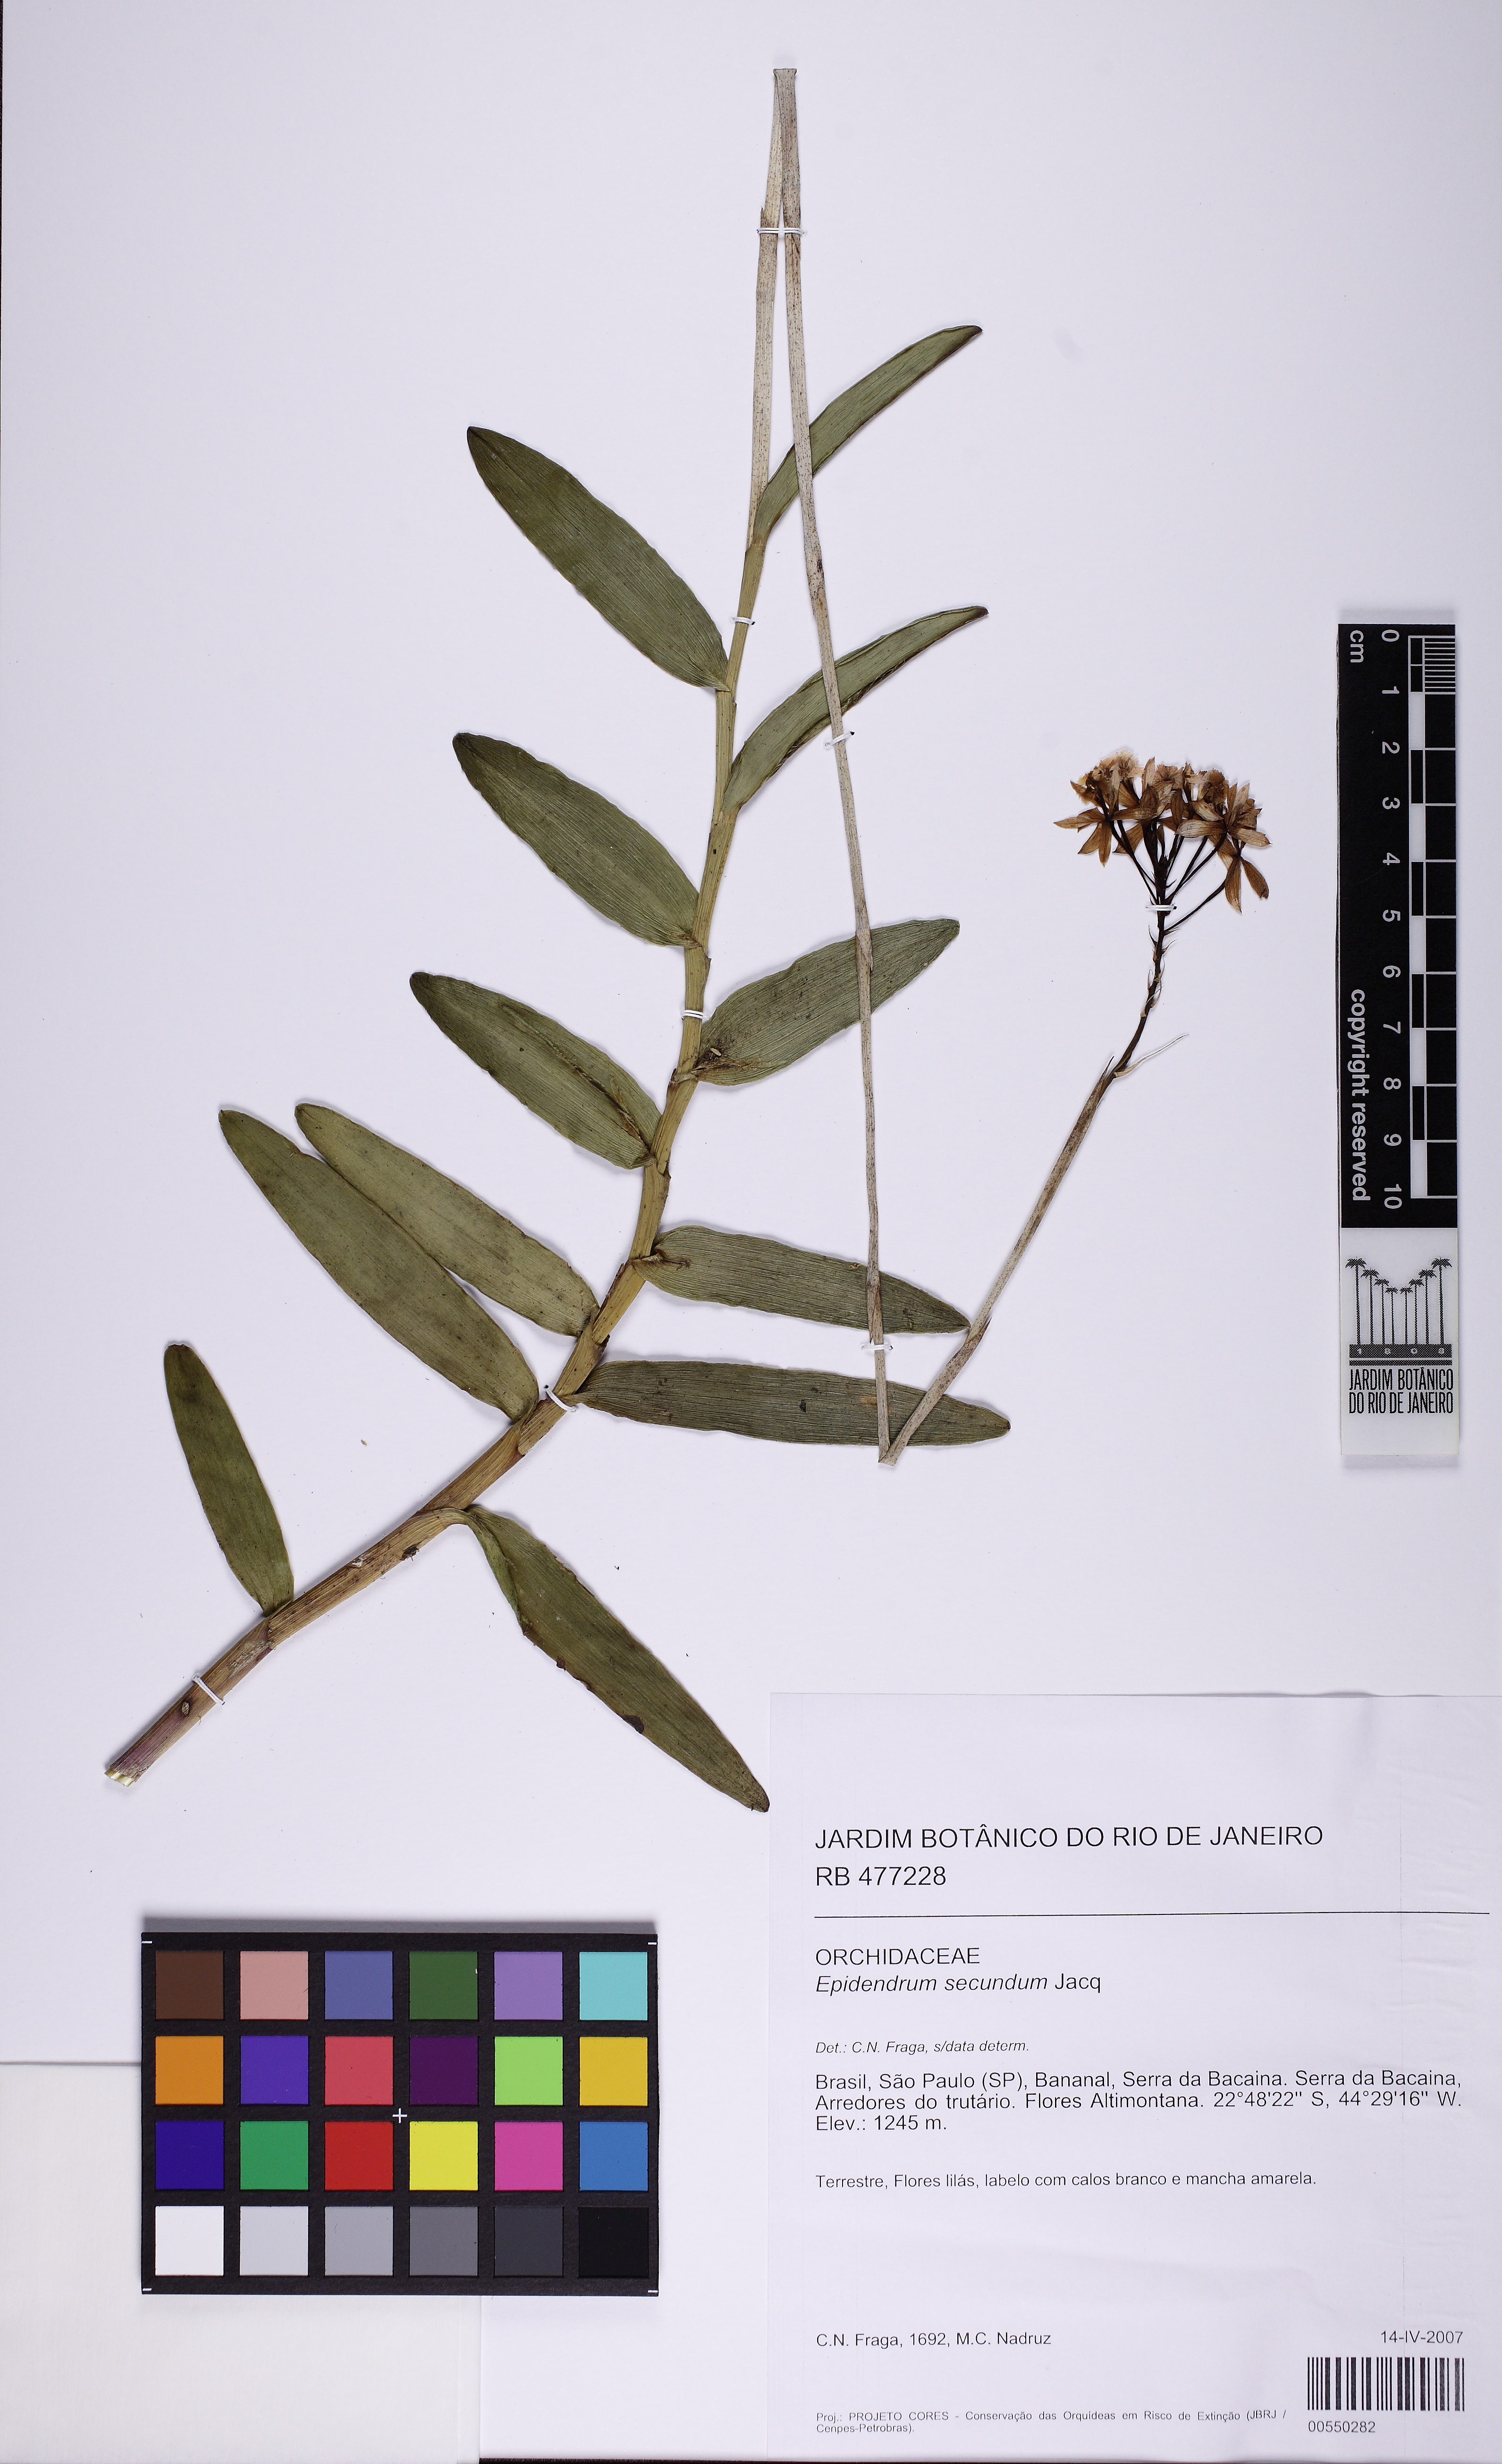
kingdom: Plantae
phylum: Tracheophyta
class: Liliopsida
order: Asparagales
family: Orchidaceae
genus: Epidendrum
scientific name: Epidendrum secundum
